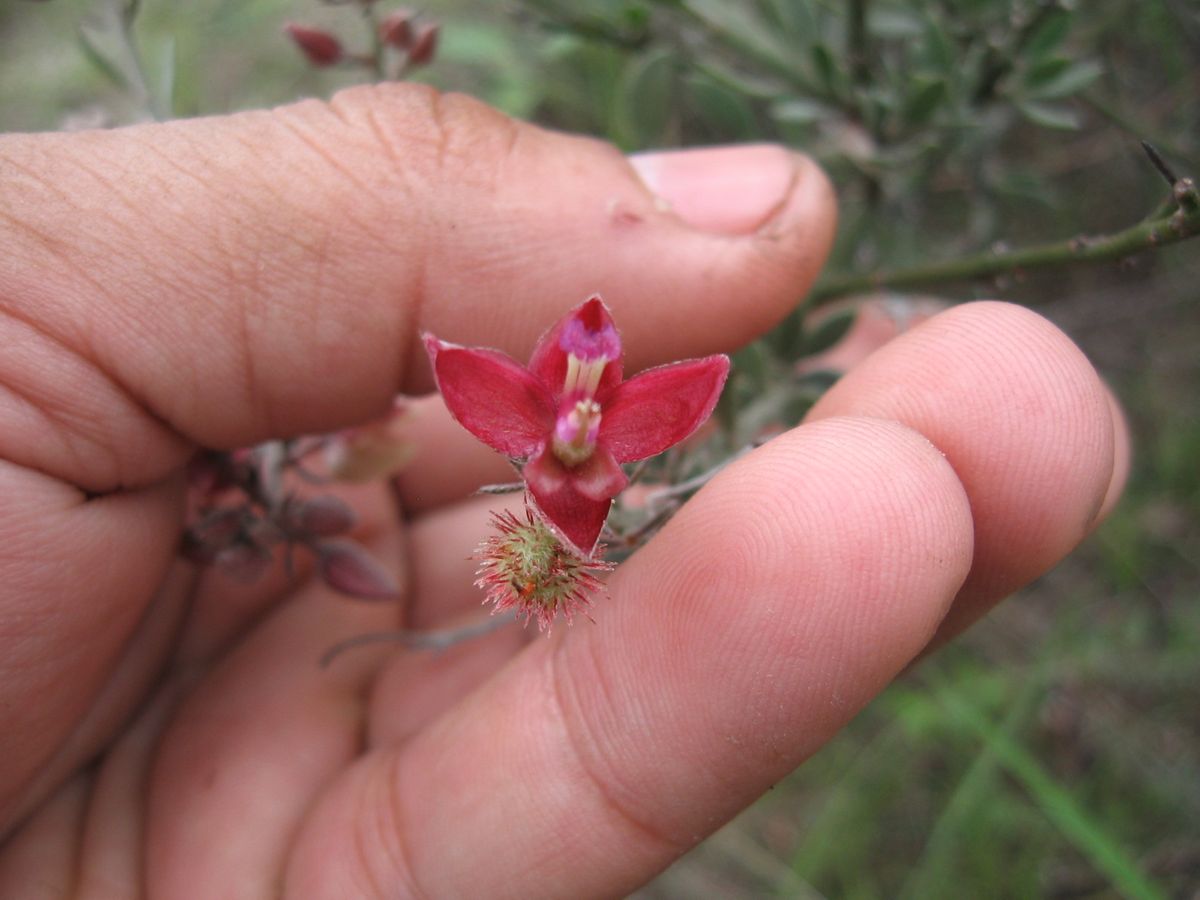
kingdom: Plantae
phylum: Tracheophyta
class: Magnoliopsida
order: Zygophyllales
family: Krameriaceae
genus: Krameria
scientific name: Krameria ixine
